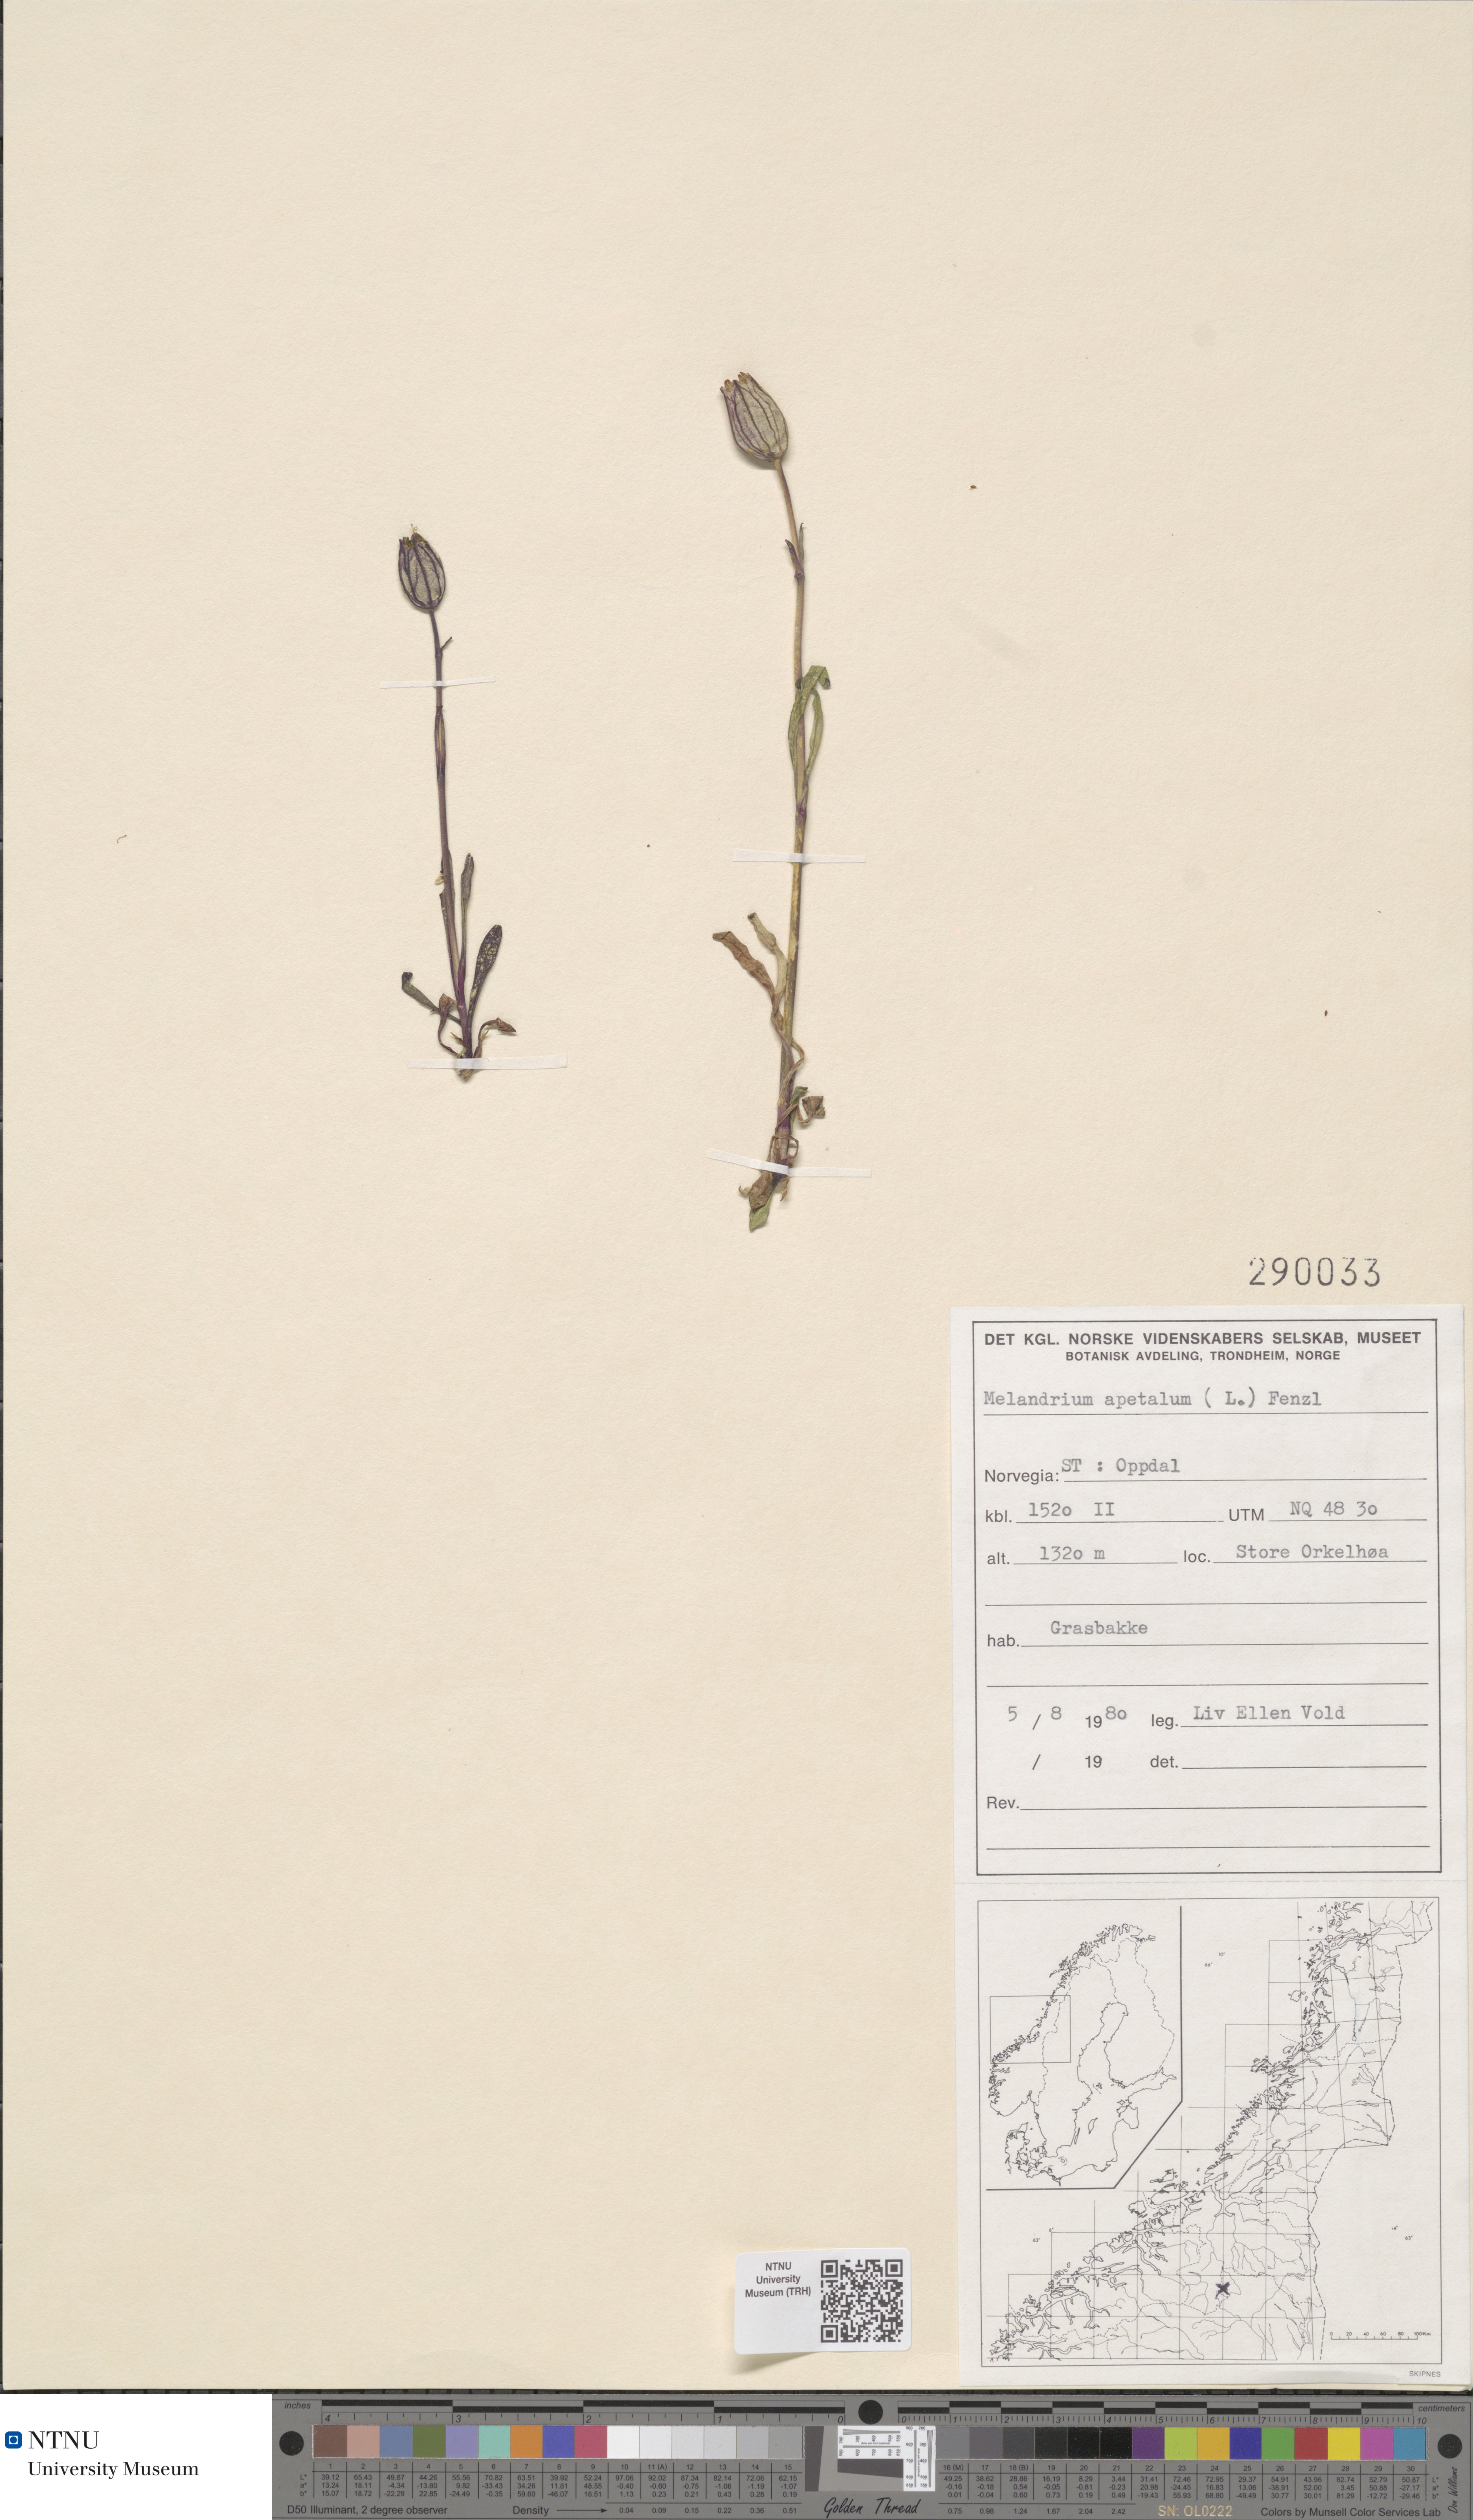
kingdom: Plantae
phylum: Tracheophyta
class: Magnoliopsida
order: Caryophyllales
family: Caryophyllaceae
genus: Silene
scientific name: Silene wahlbergella
